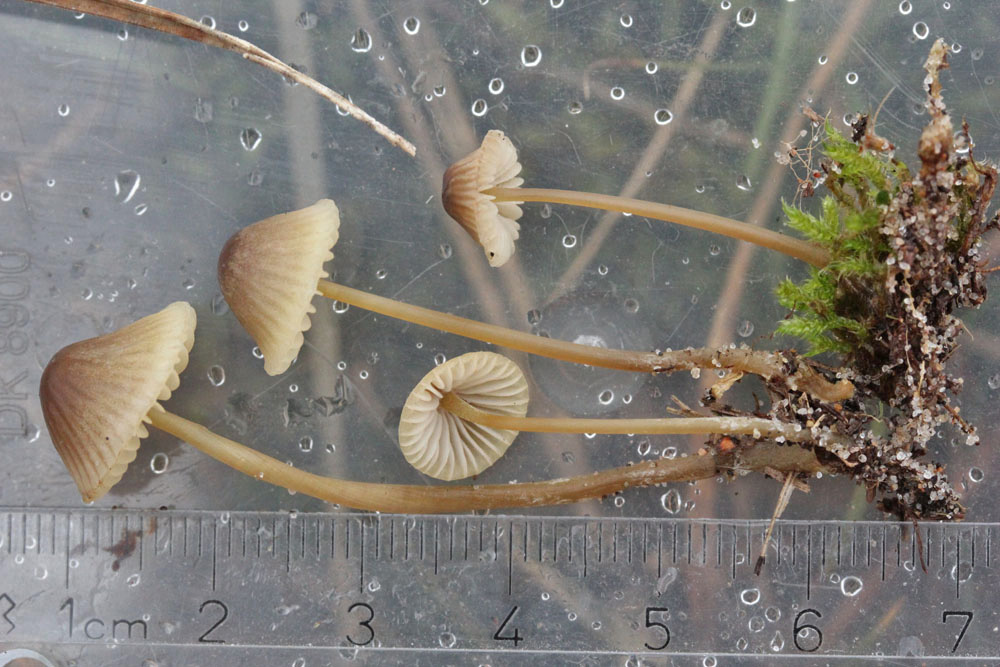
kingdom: Fungi
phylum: Basidiomycota
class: Agaricomycetes
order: Agaricales
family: Mycenaceae
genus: Mycena
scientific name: Mycena chlorantha
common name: klit-huesvamp
